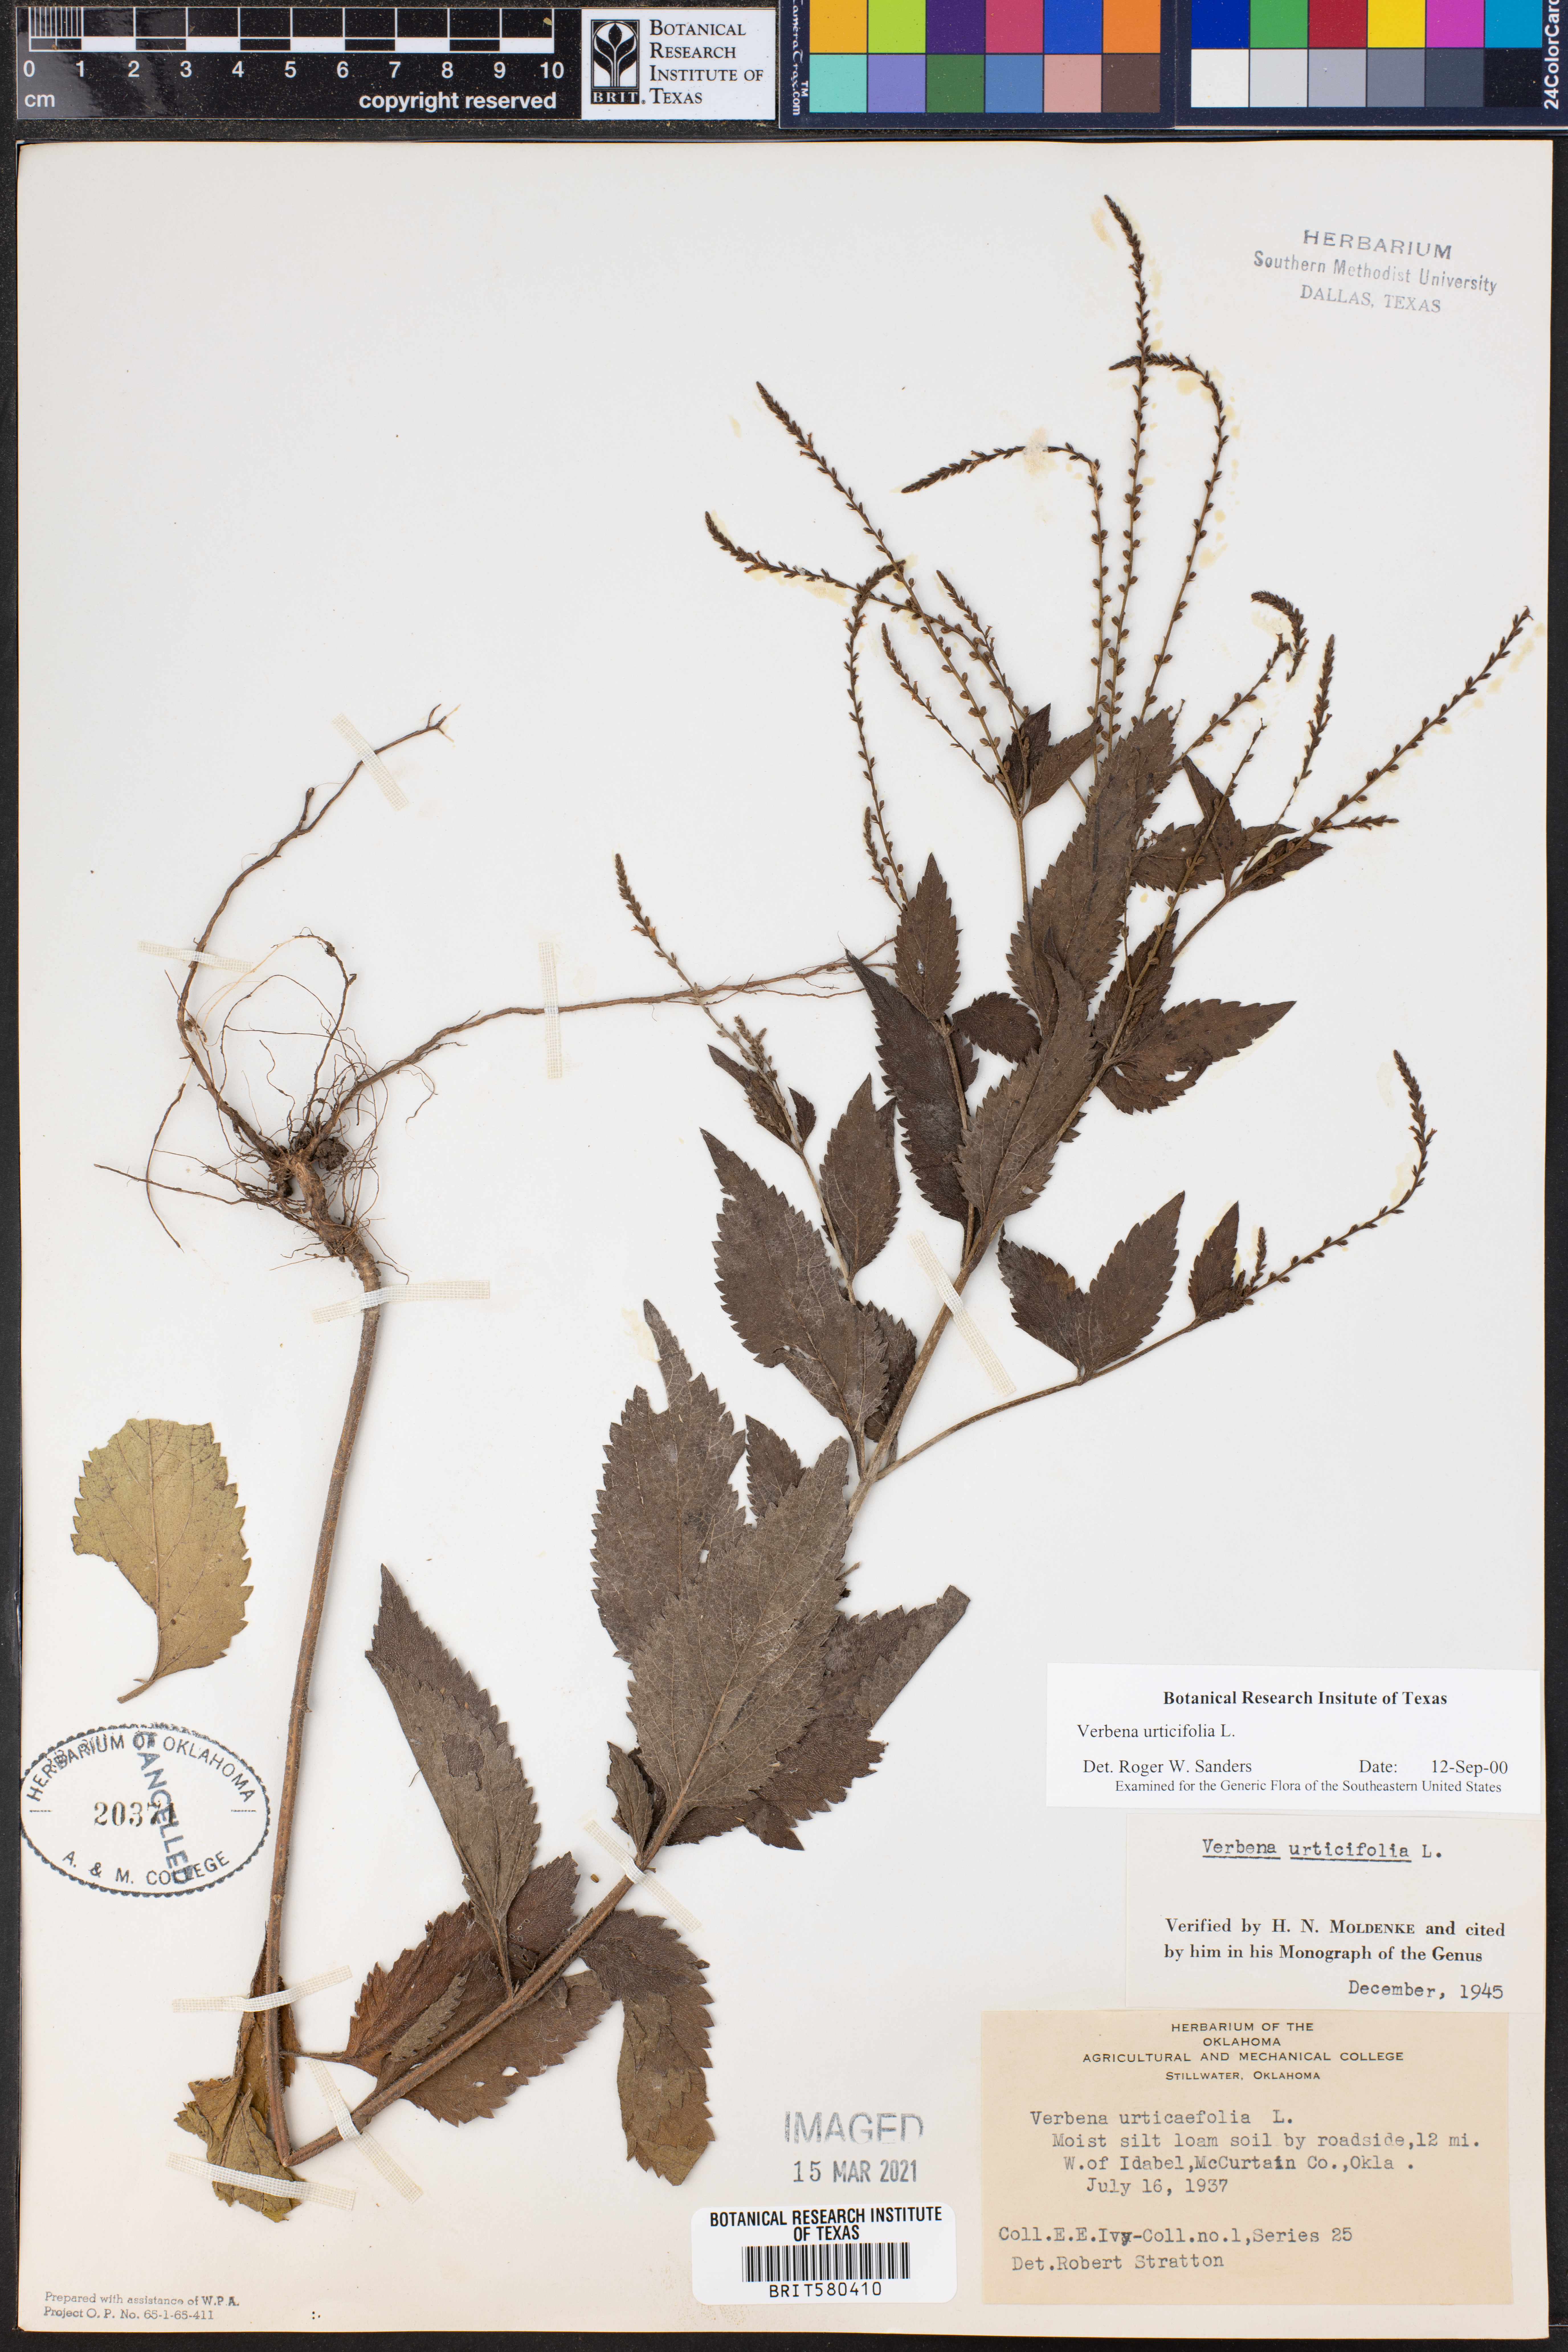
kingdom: Plantae
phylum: Tracheophyta
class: Magnoliopsida
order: Lamiales
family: Verbenaceae
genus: Verbena
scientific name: Verbena urticifolia
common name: Nettle-leaved vervain
